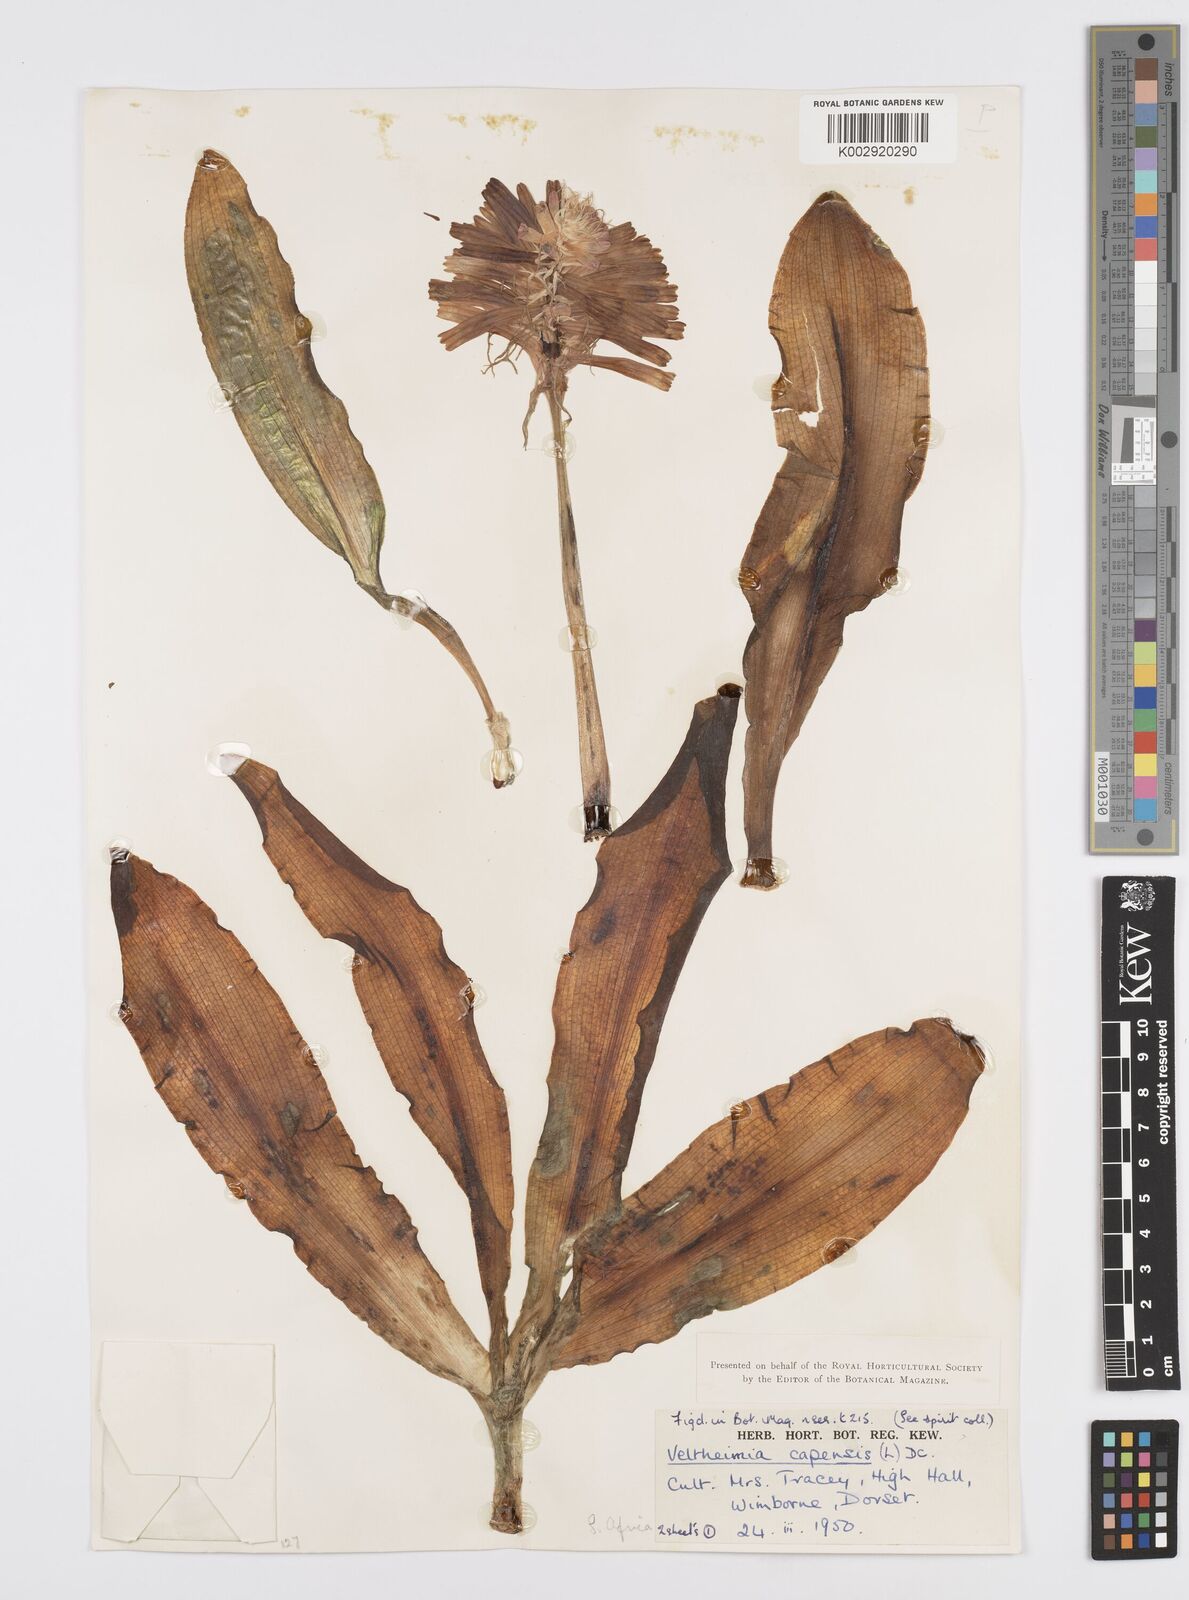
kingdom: Plantae
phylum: Tracheophyta
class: Liliopsida
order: Asparagales
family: Asparagaceae
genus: Veltheimia
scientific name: Veltheimia bracteata
